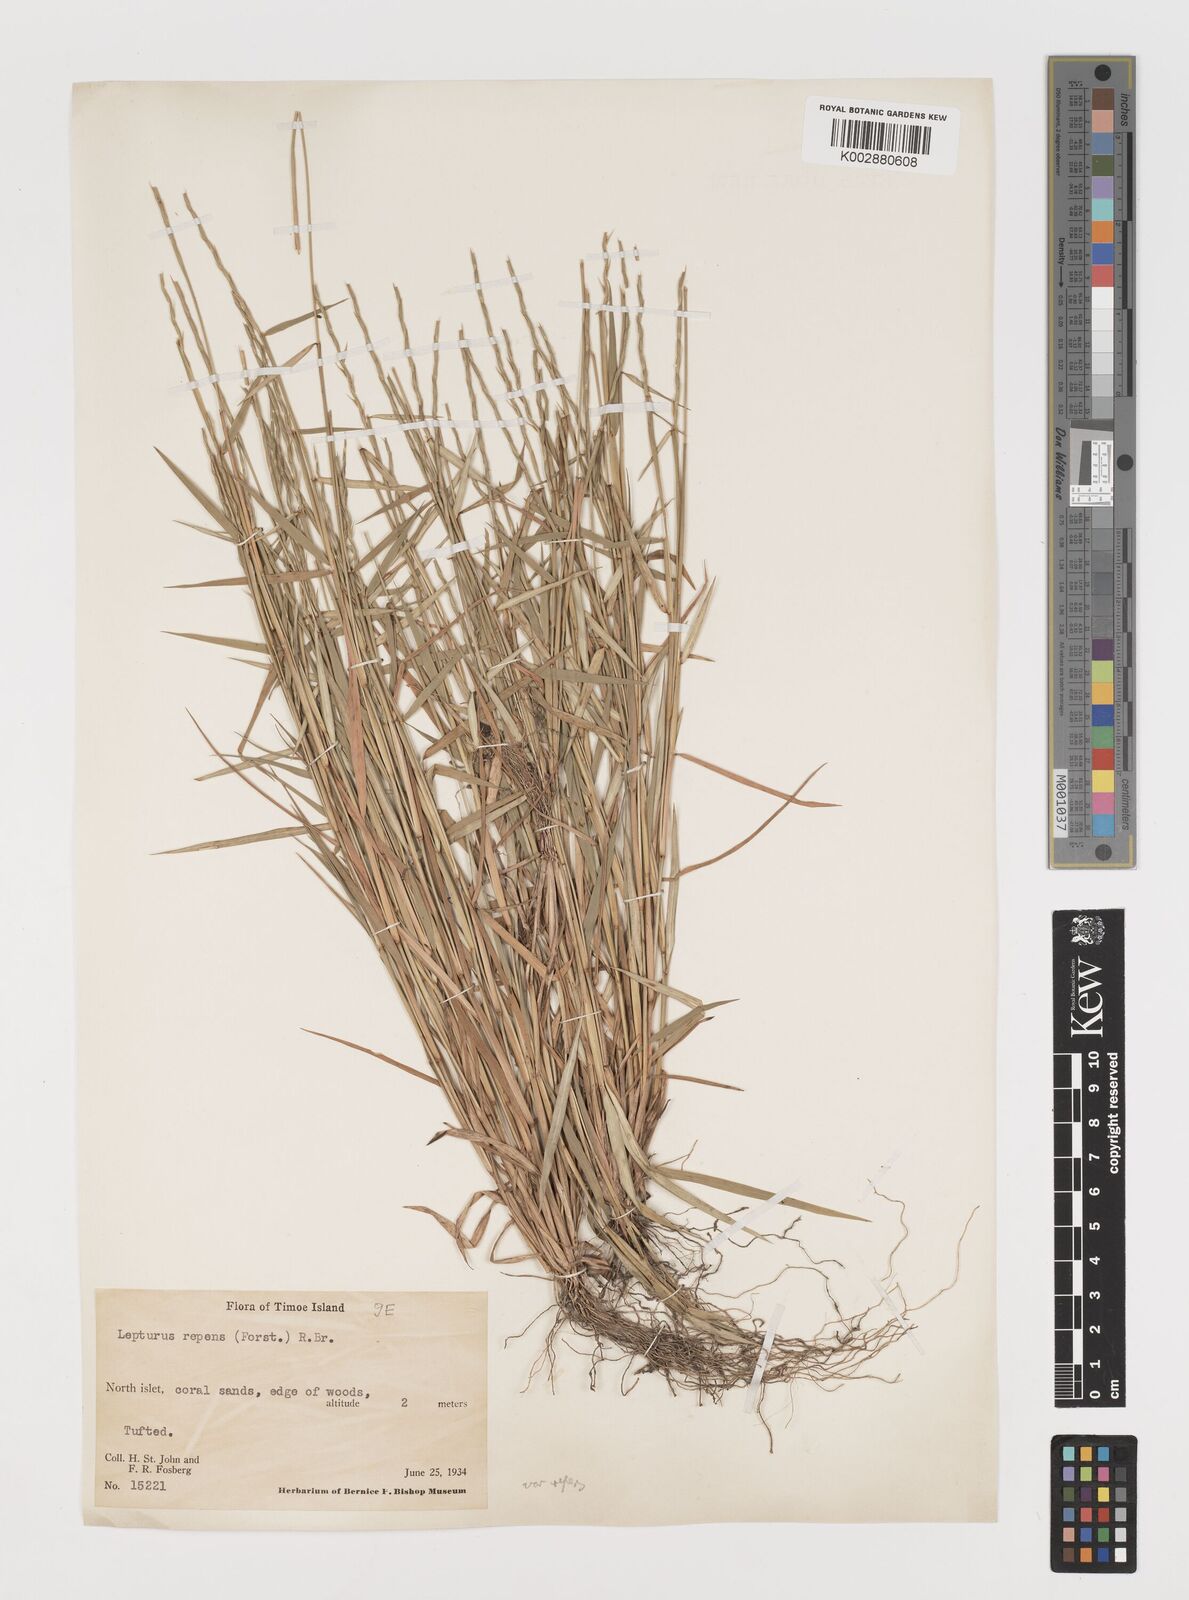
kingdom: Plantae
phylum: Tracheophyta
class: Liliopsida
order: Poales
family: Poaceae
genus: Lepturus
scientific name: Lepturus repens
